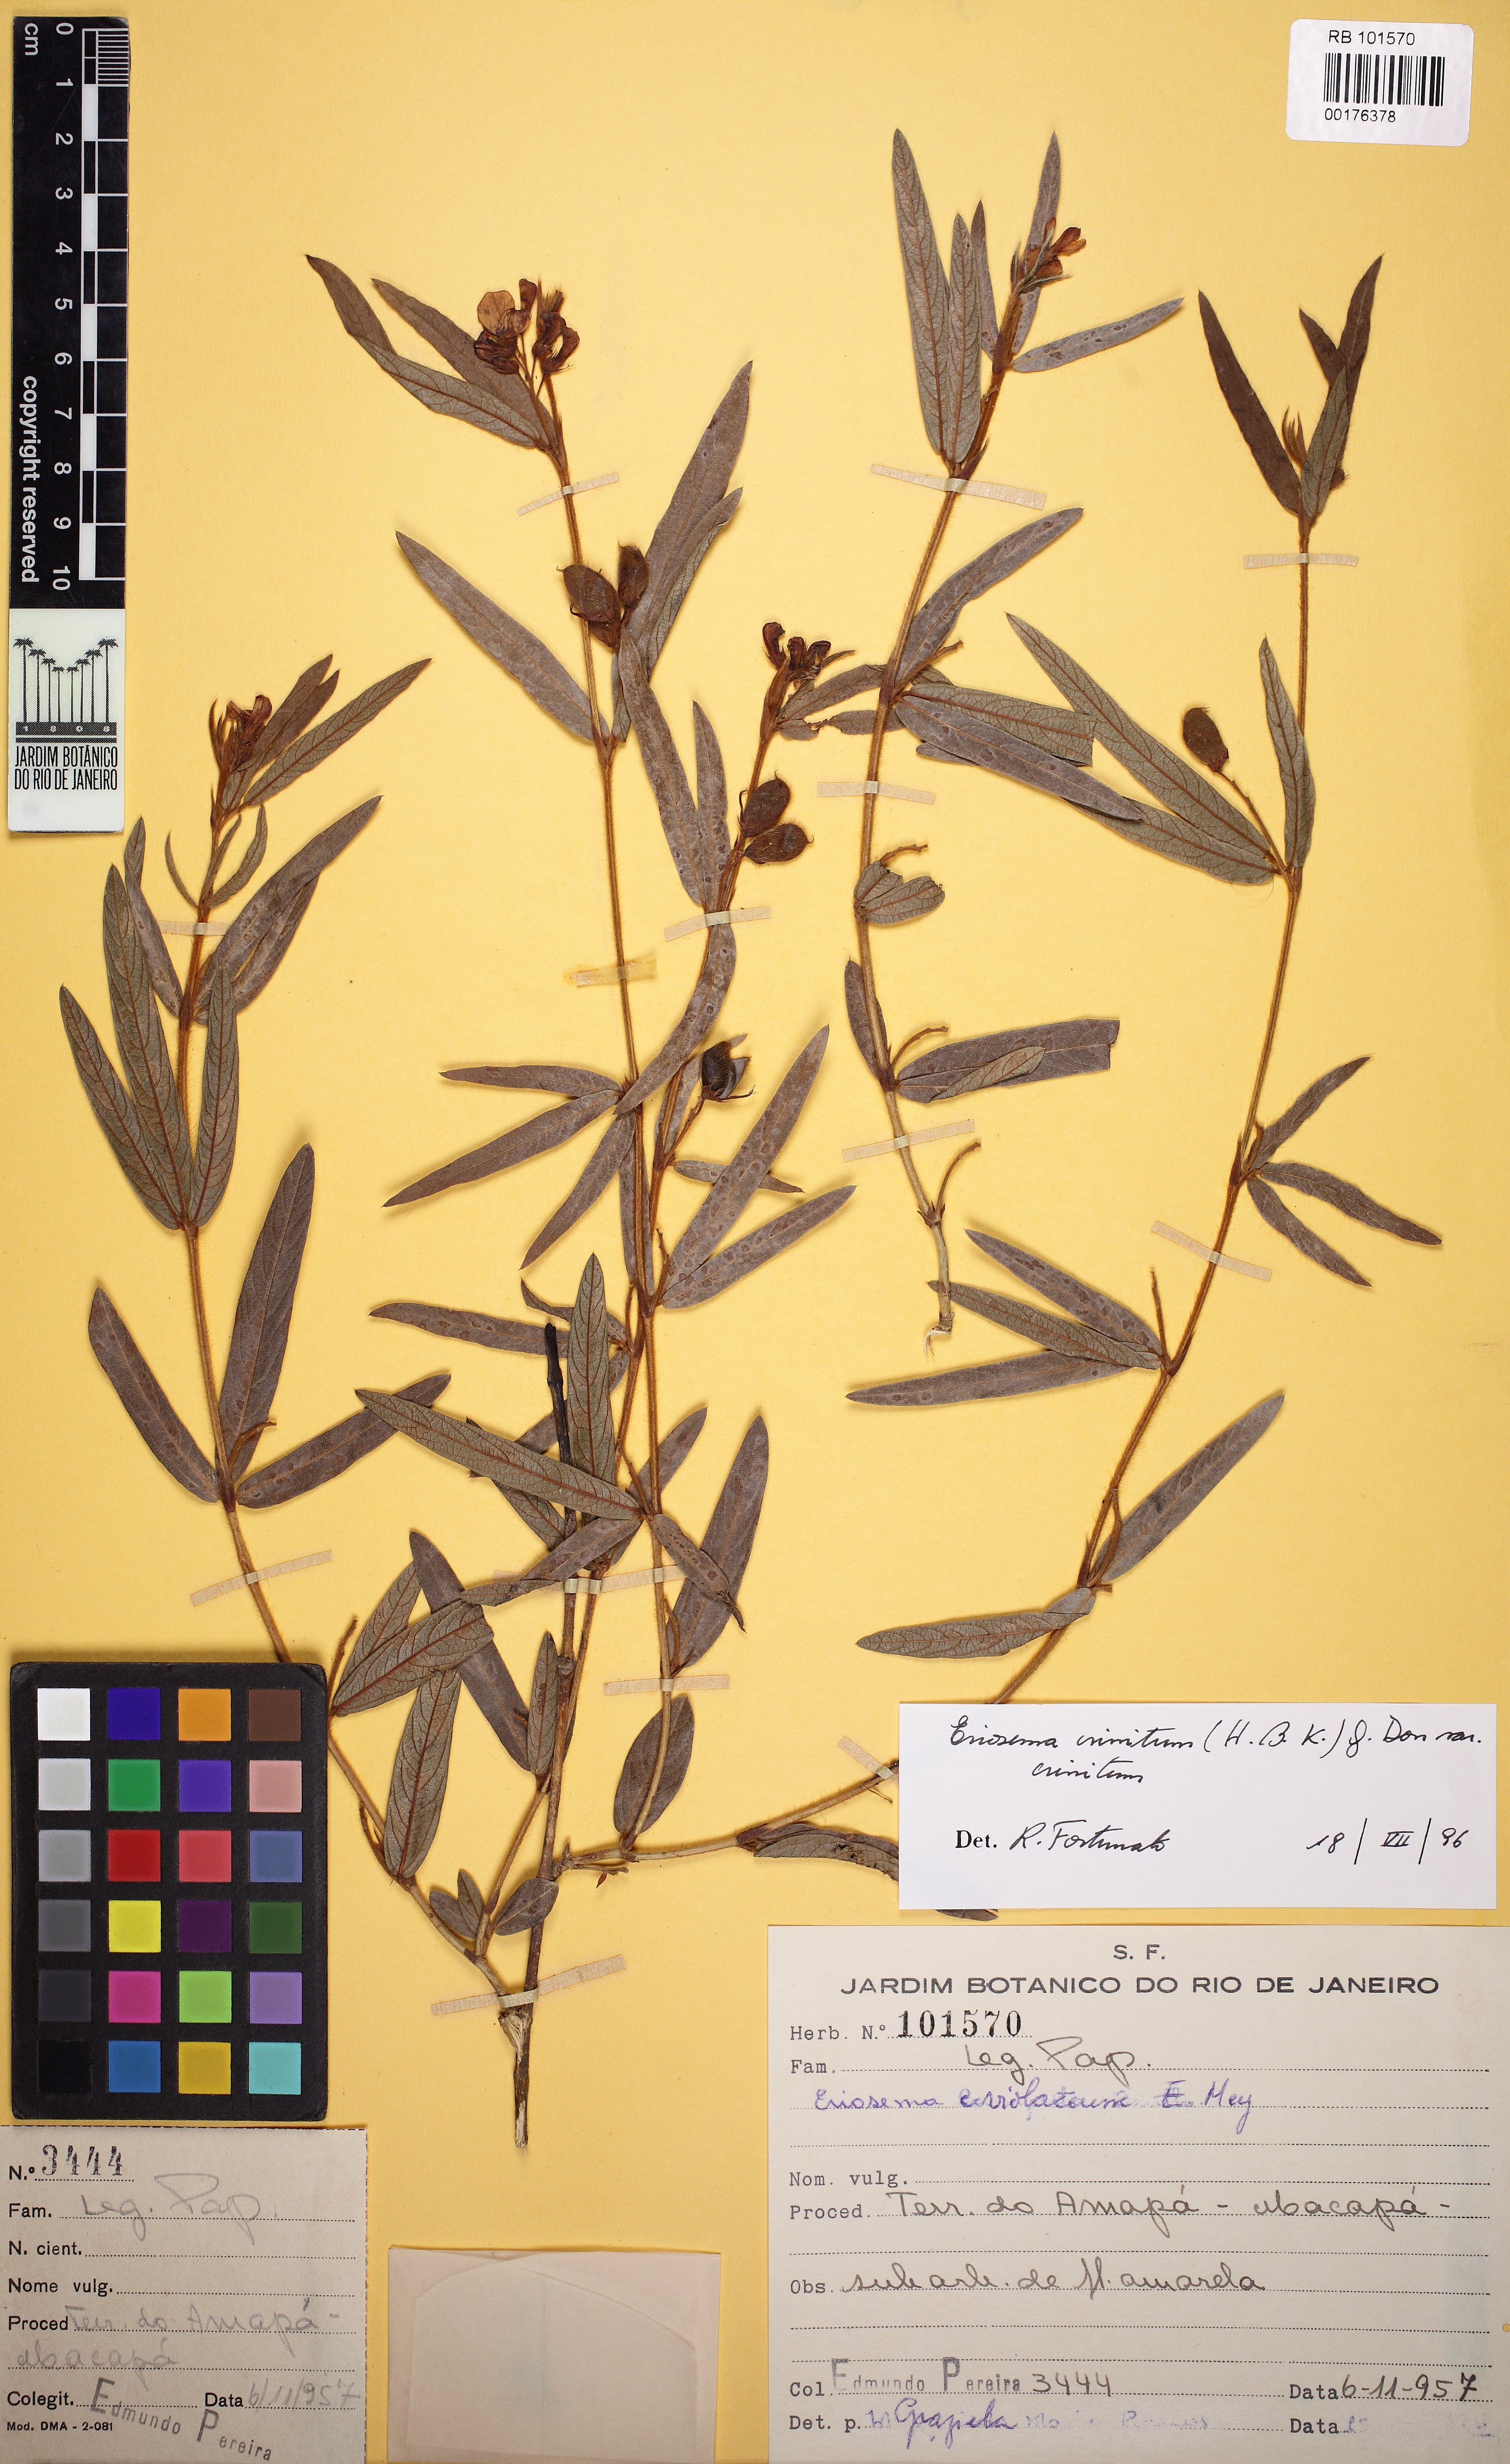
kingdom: Plantae
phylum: Tracheophyta
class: Magnoliopsida
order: Fabales
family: Fabaceae
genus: Eriosema
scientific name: Eriosema crinitum
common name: Sand pea
